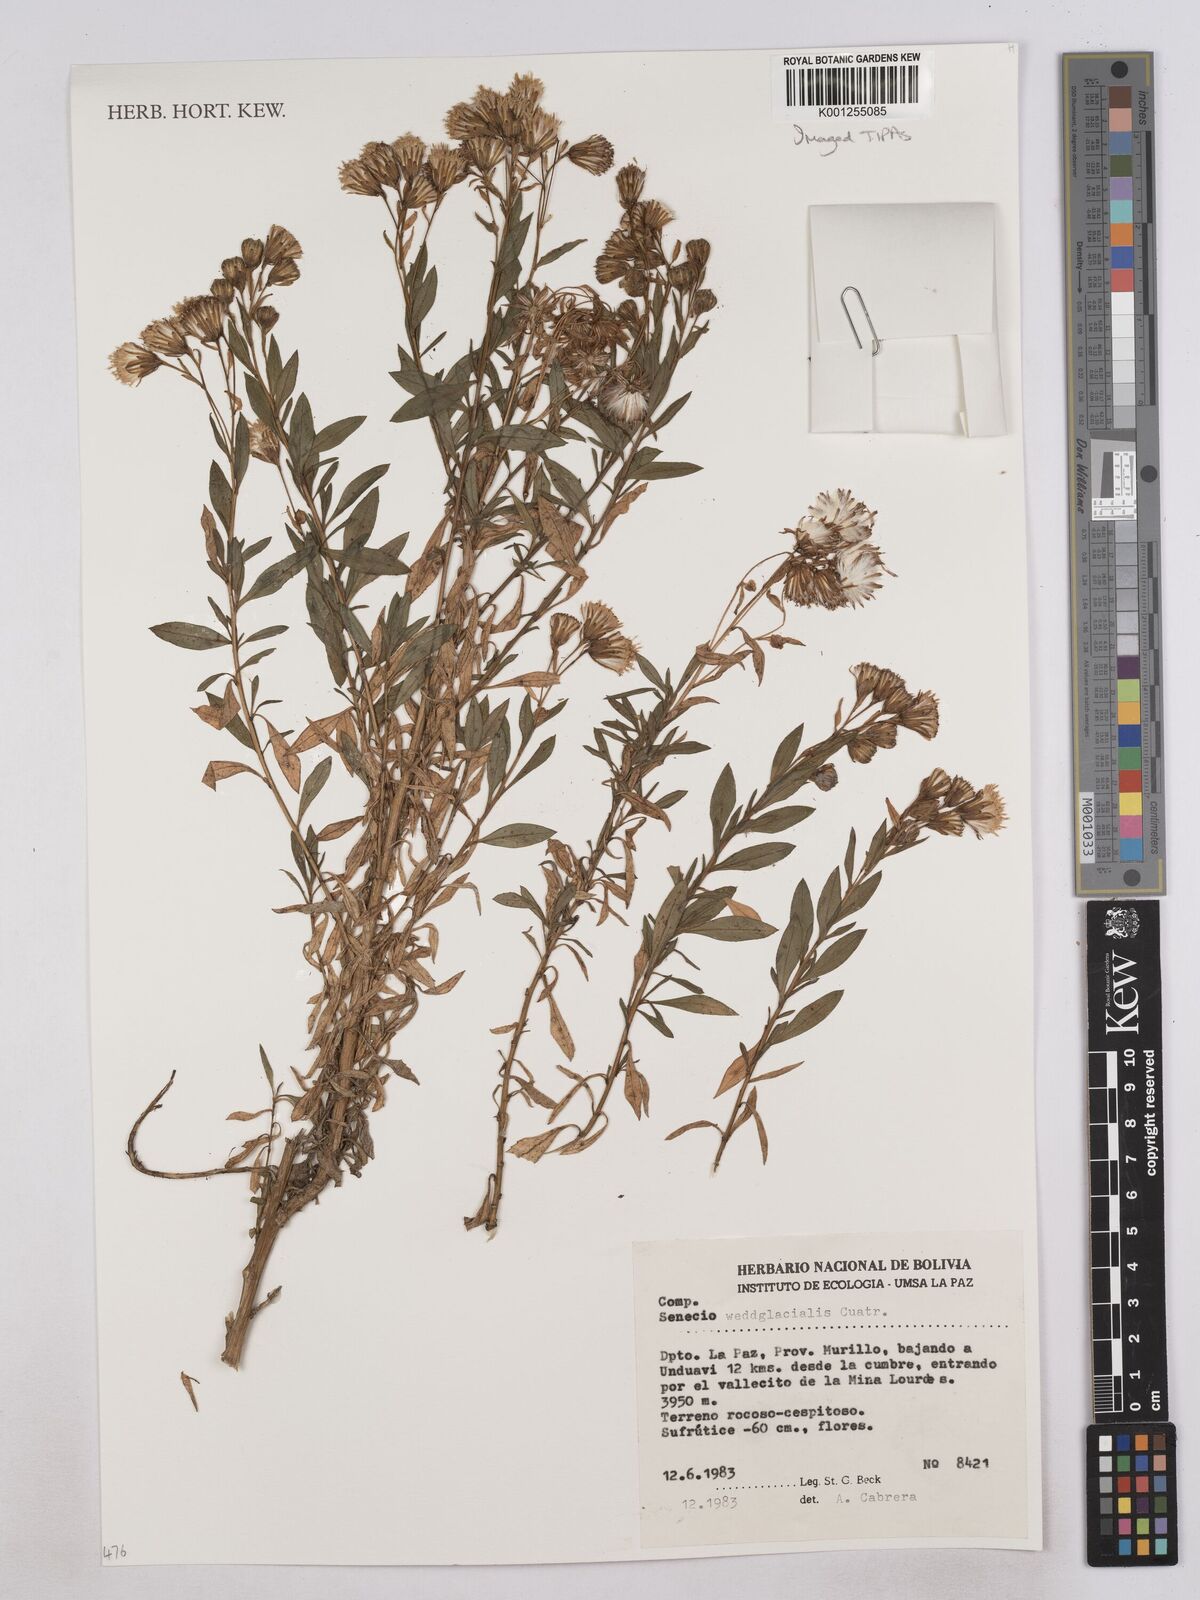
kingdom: Plantae
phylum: Tracheophyta
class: Magnoliopsida
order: Asterales
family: Asteraceae
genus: Senecio
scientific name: Senecio wedglacialis
